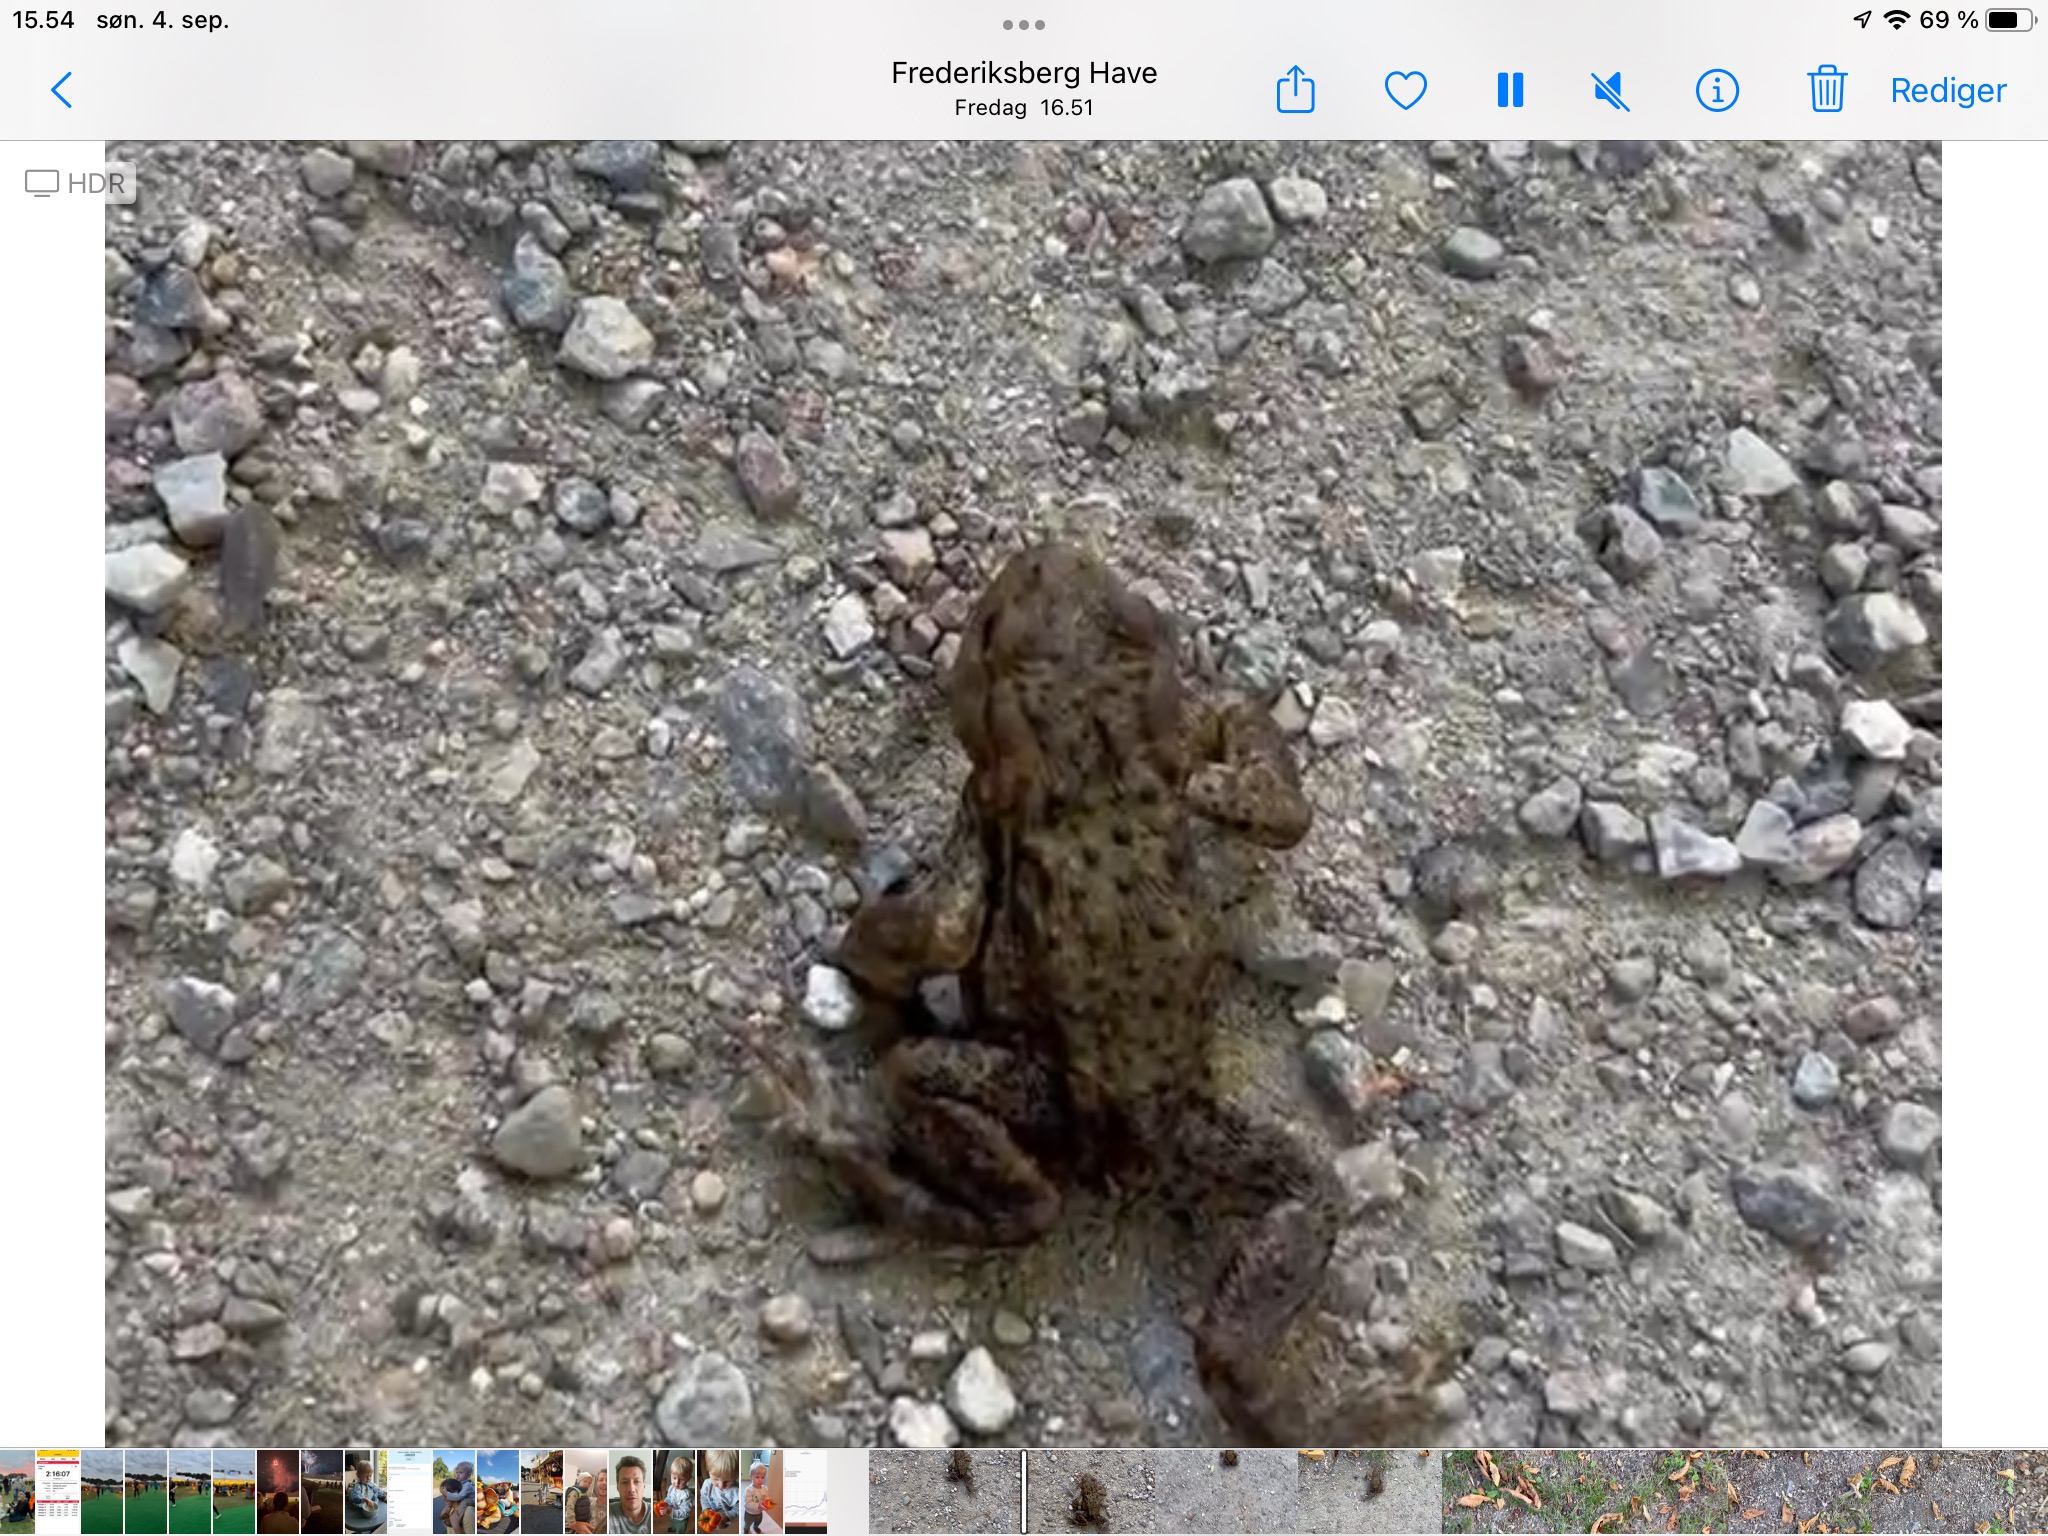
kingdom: Animalia
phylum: Chordata
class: Amphibia
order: Anura
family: Bufonidae
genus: Bufo
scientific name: Bufo bufo
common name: Skrubtudse
